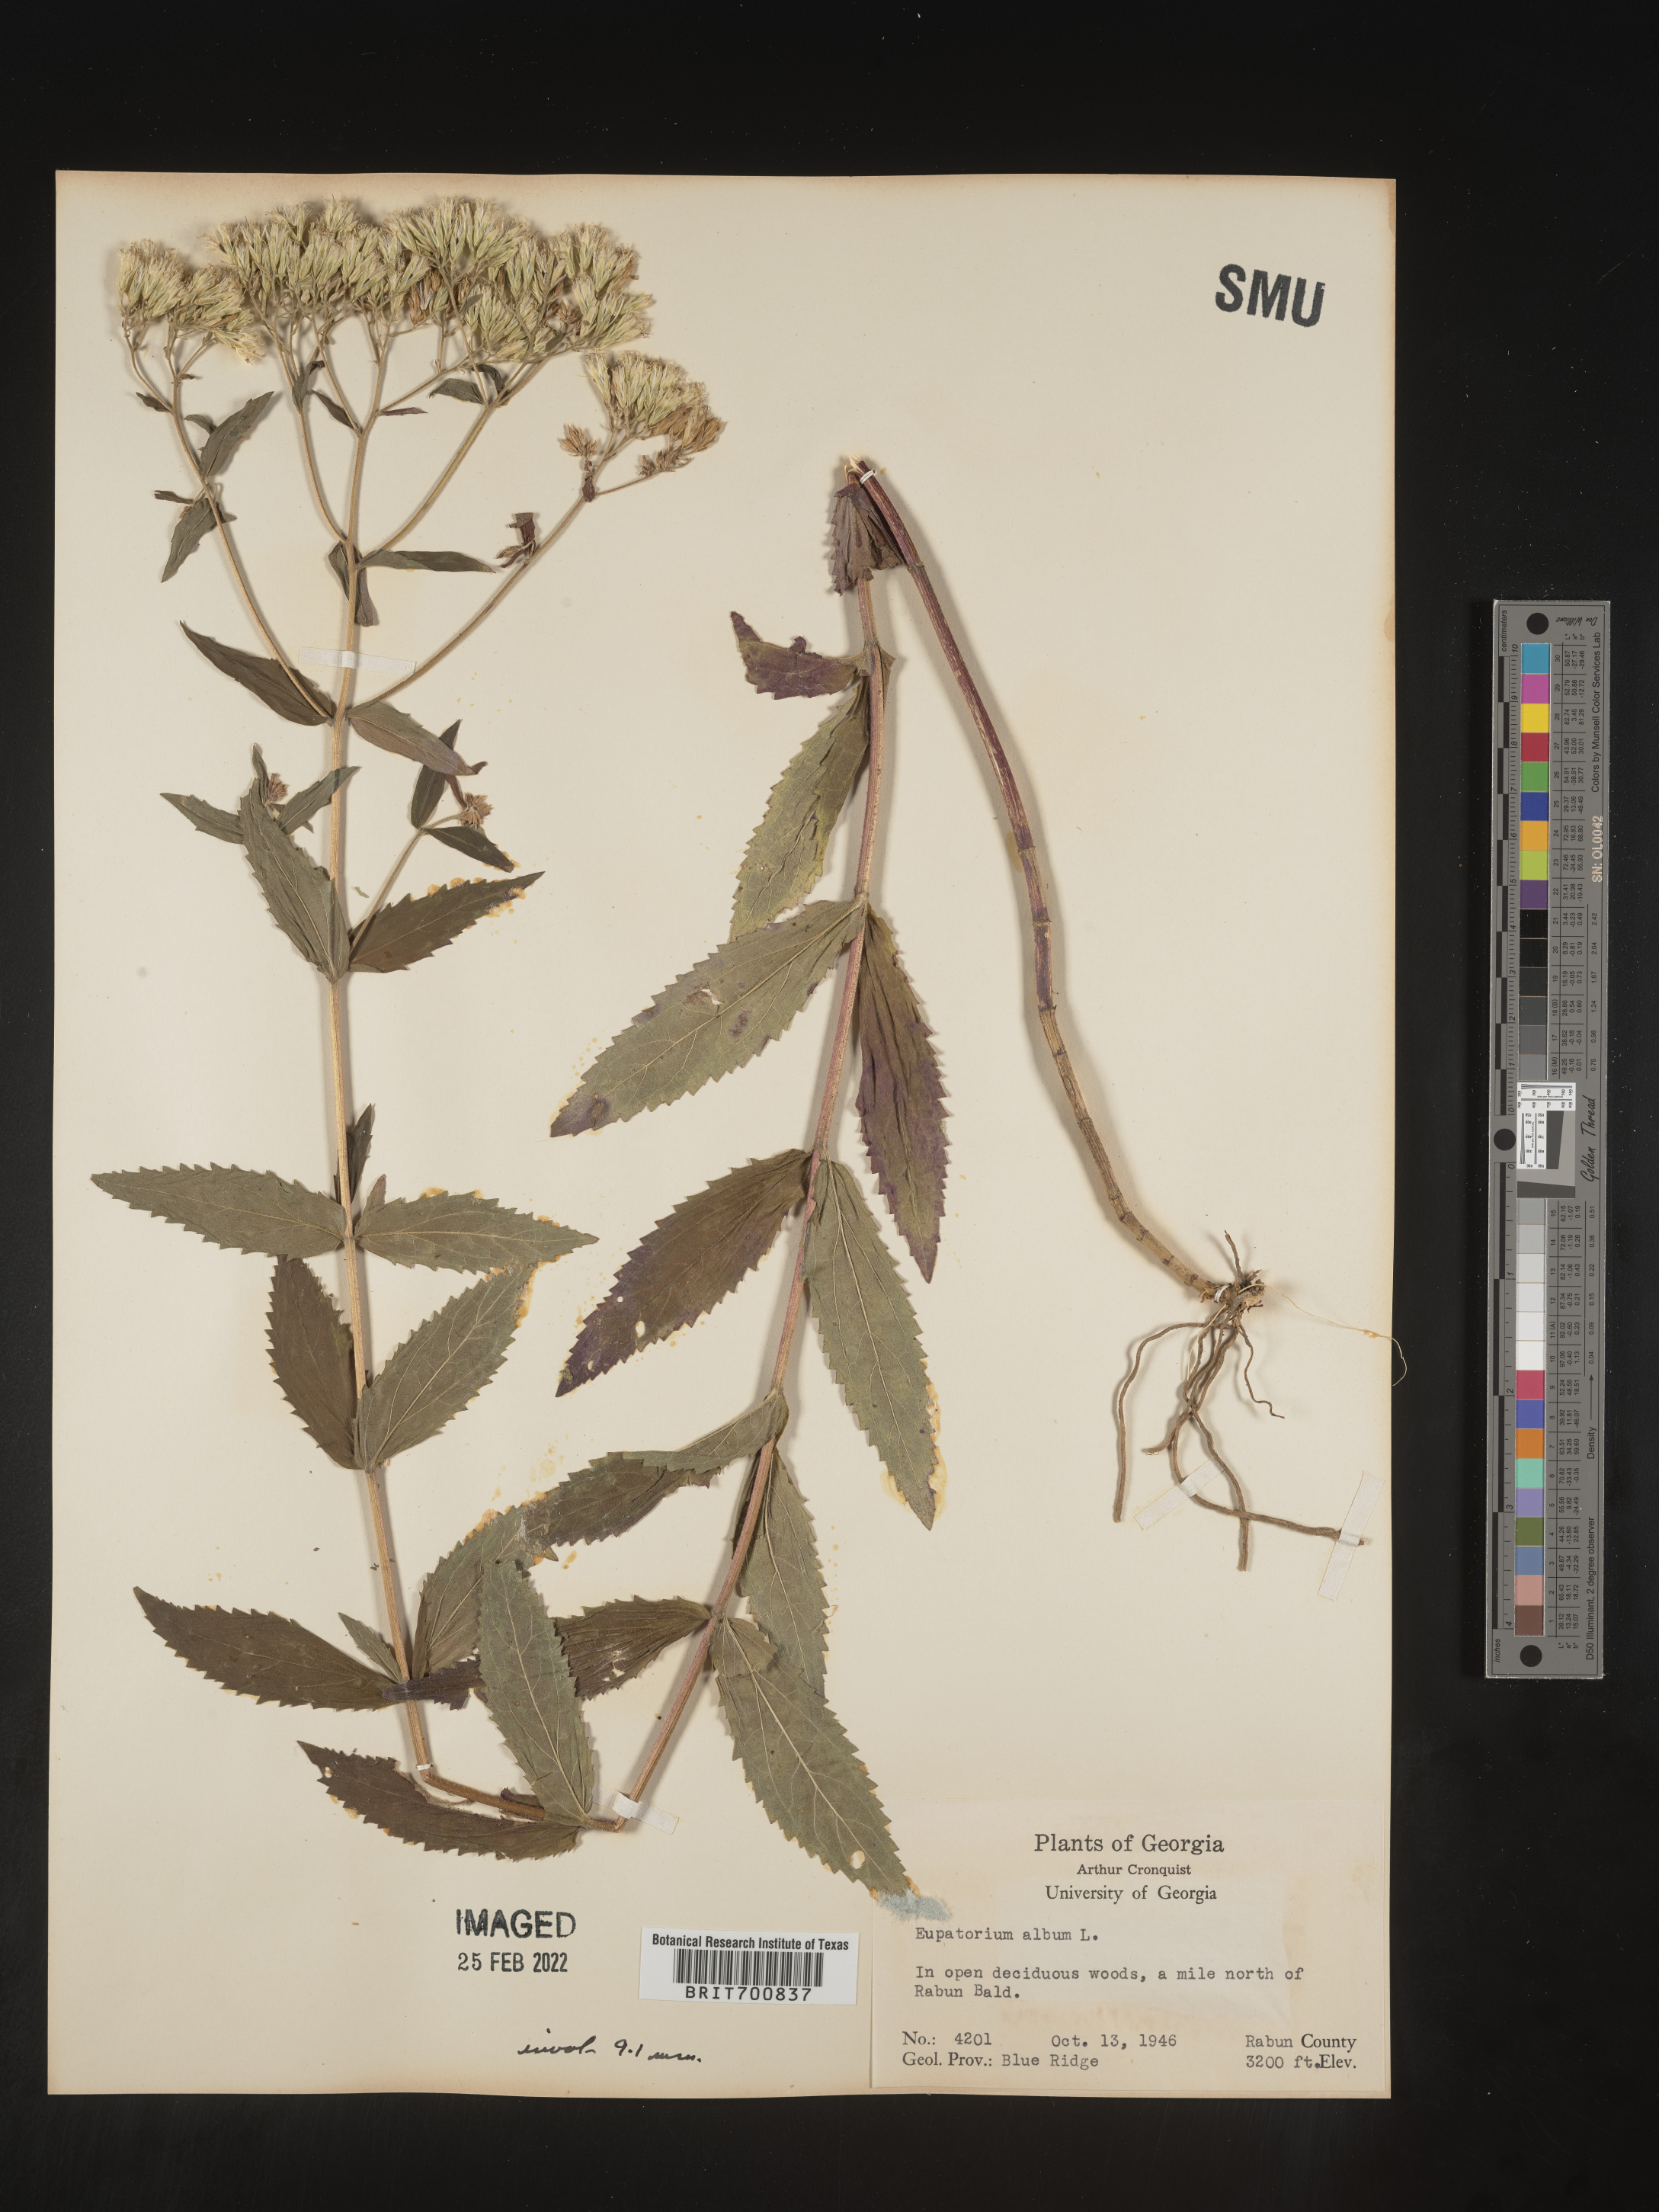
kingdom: Plantae
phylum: Tracheophyta
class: Magnoliopsida
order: Asterales
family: Asteraceae
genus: Eupatorium
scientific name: Eupatorium album
